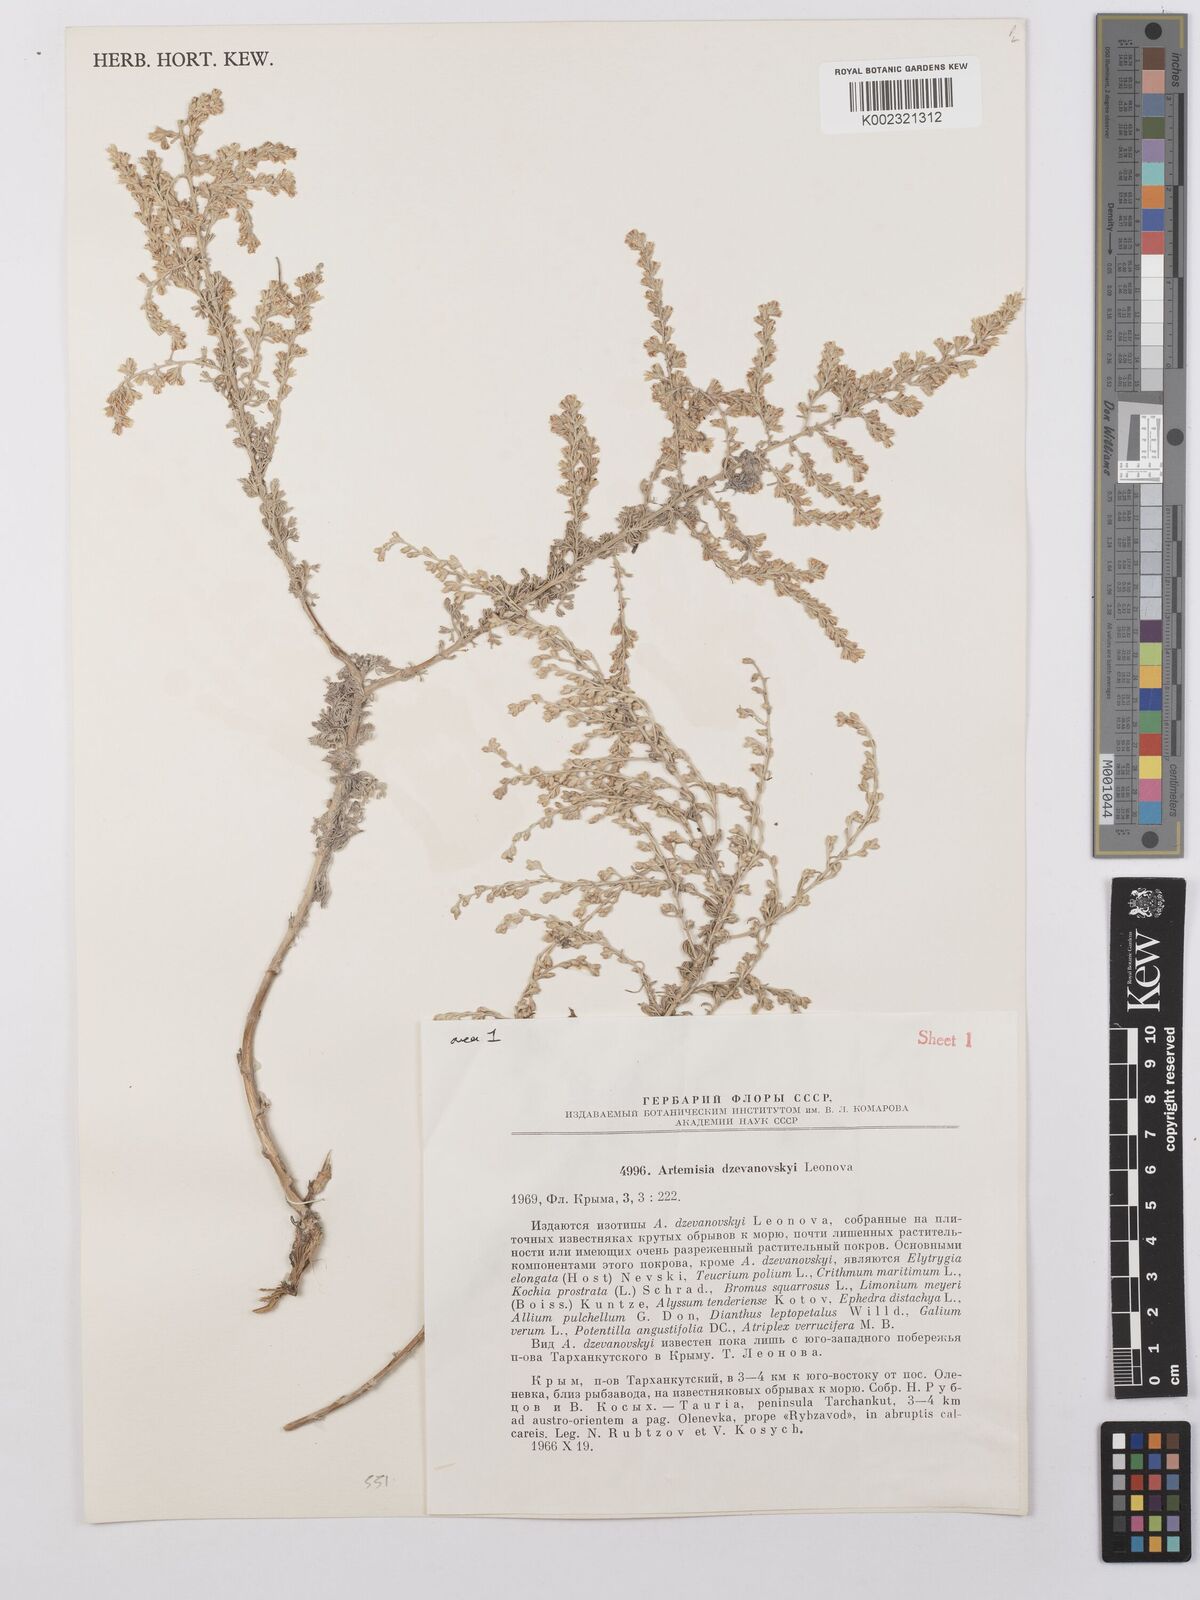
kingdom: Plantae
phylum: Tracheophyta
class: Magnoliopsida
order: Asterales
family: Asteraceae
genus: Artemisia
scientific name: Artemisia dzevanovskyi
